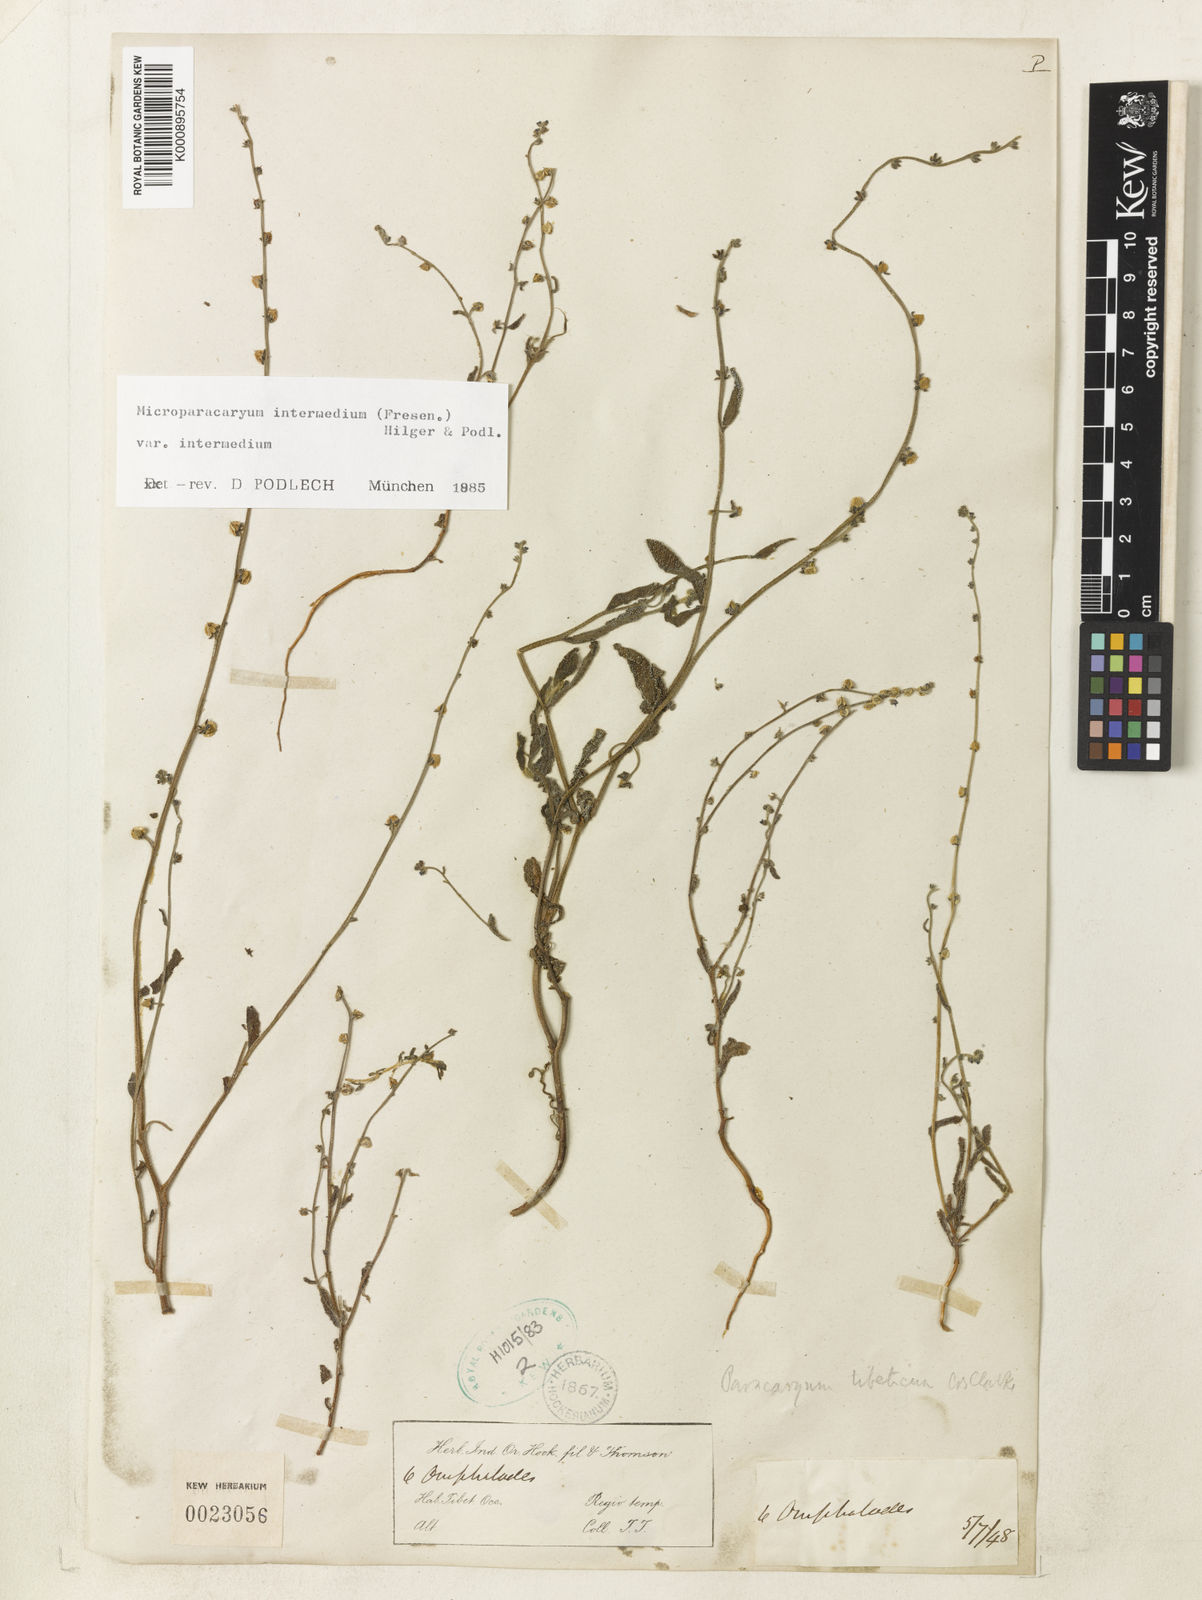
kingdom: Plantae
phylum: Tracheophyta
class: Magnoliopsida
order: Boraginales
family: Boraginaceae
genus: Microparacaryum
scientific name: Microparacaryum intermedium
